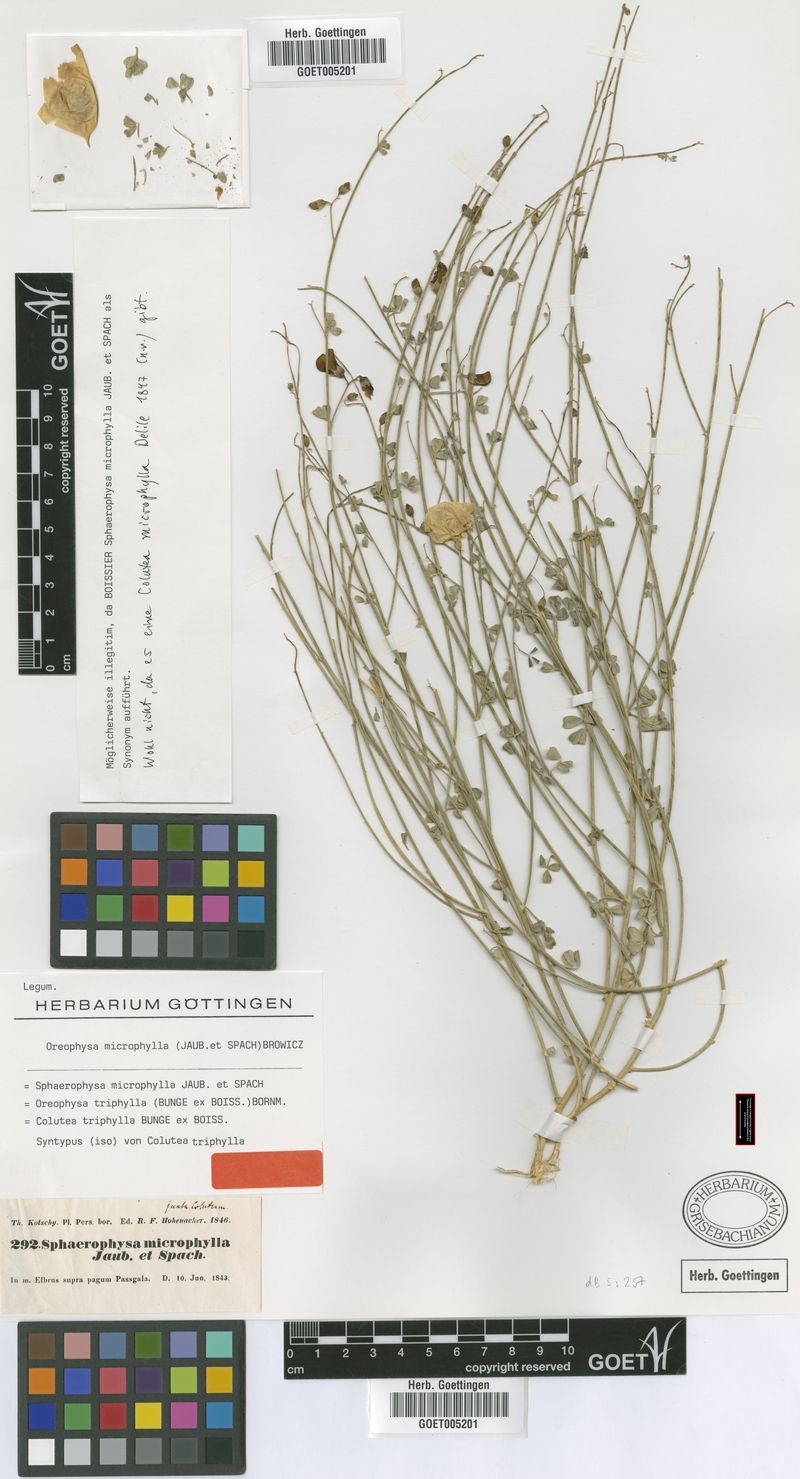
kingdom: Plantae
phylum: Tracheophyta
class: Magnoliopsida
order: Fabales
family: Fabaceae
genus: Colutea
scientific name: Colutea triphylla
